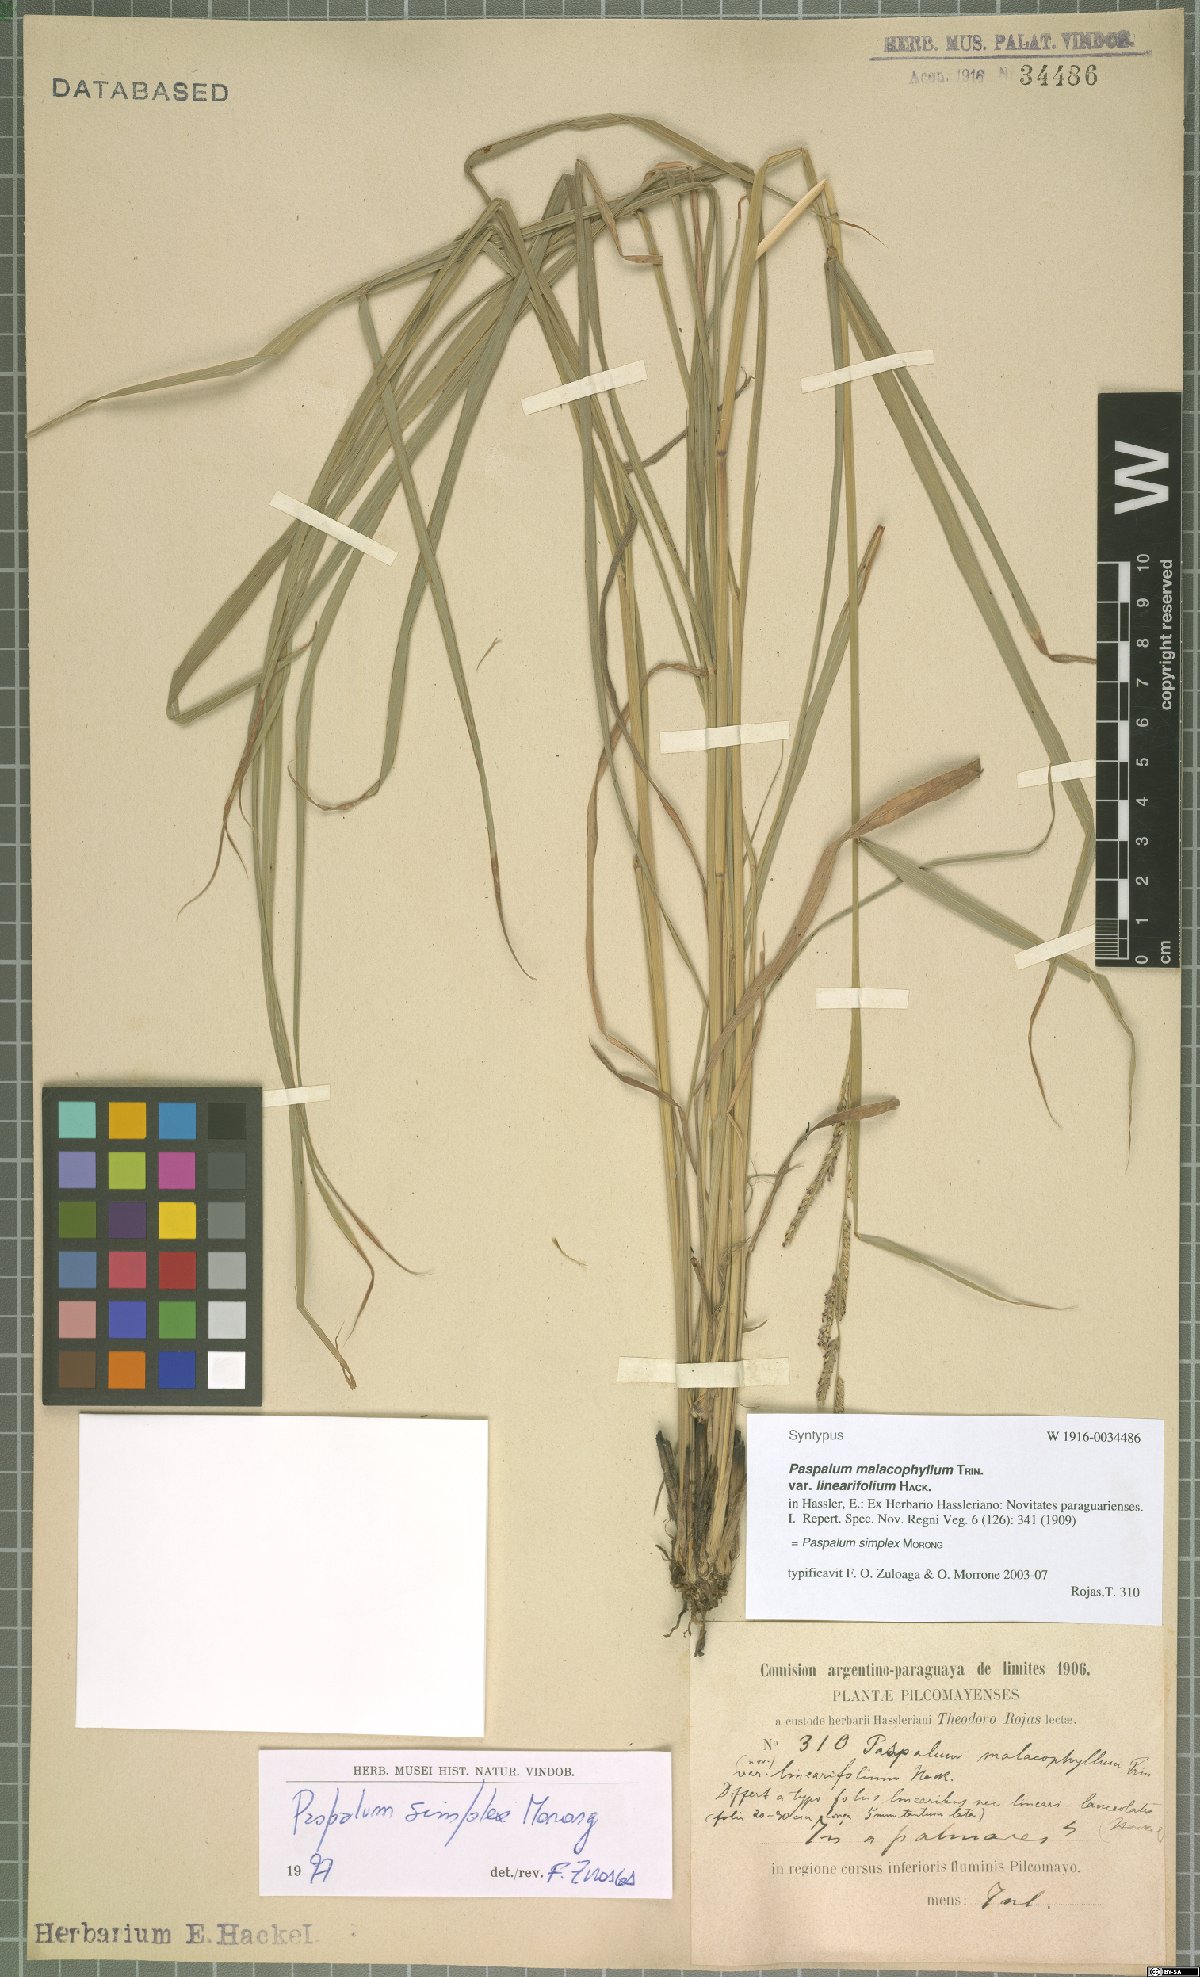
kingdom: Plantae
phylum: Tracheophyta
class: Liliopsida
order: Poales
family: Poaceae
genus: Paspalum
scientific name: Paspalum simplex
